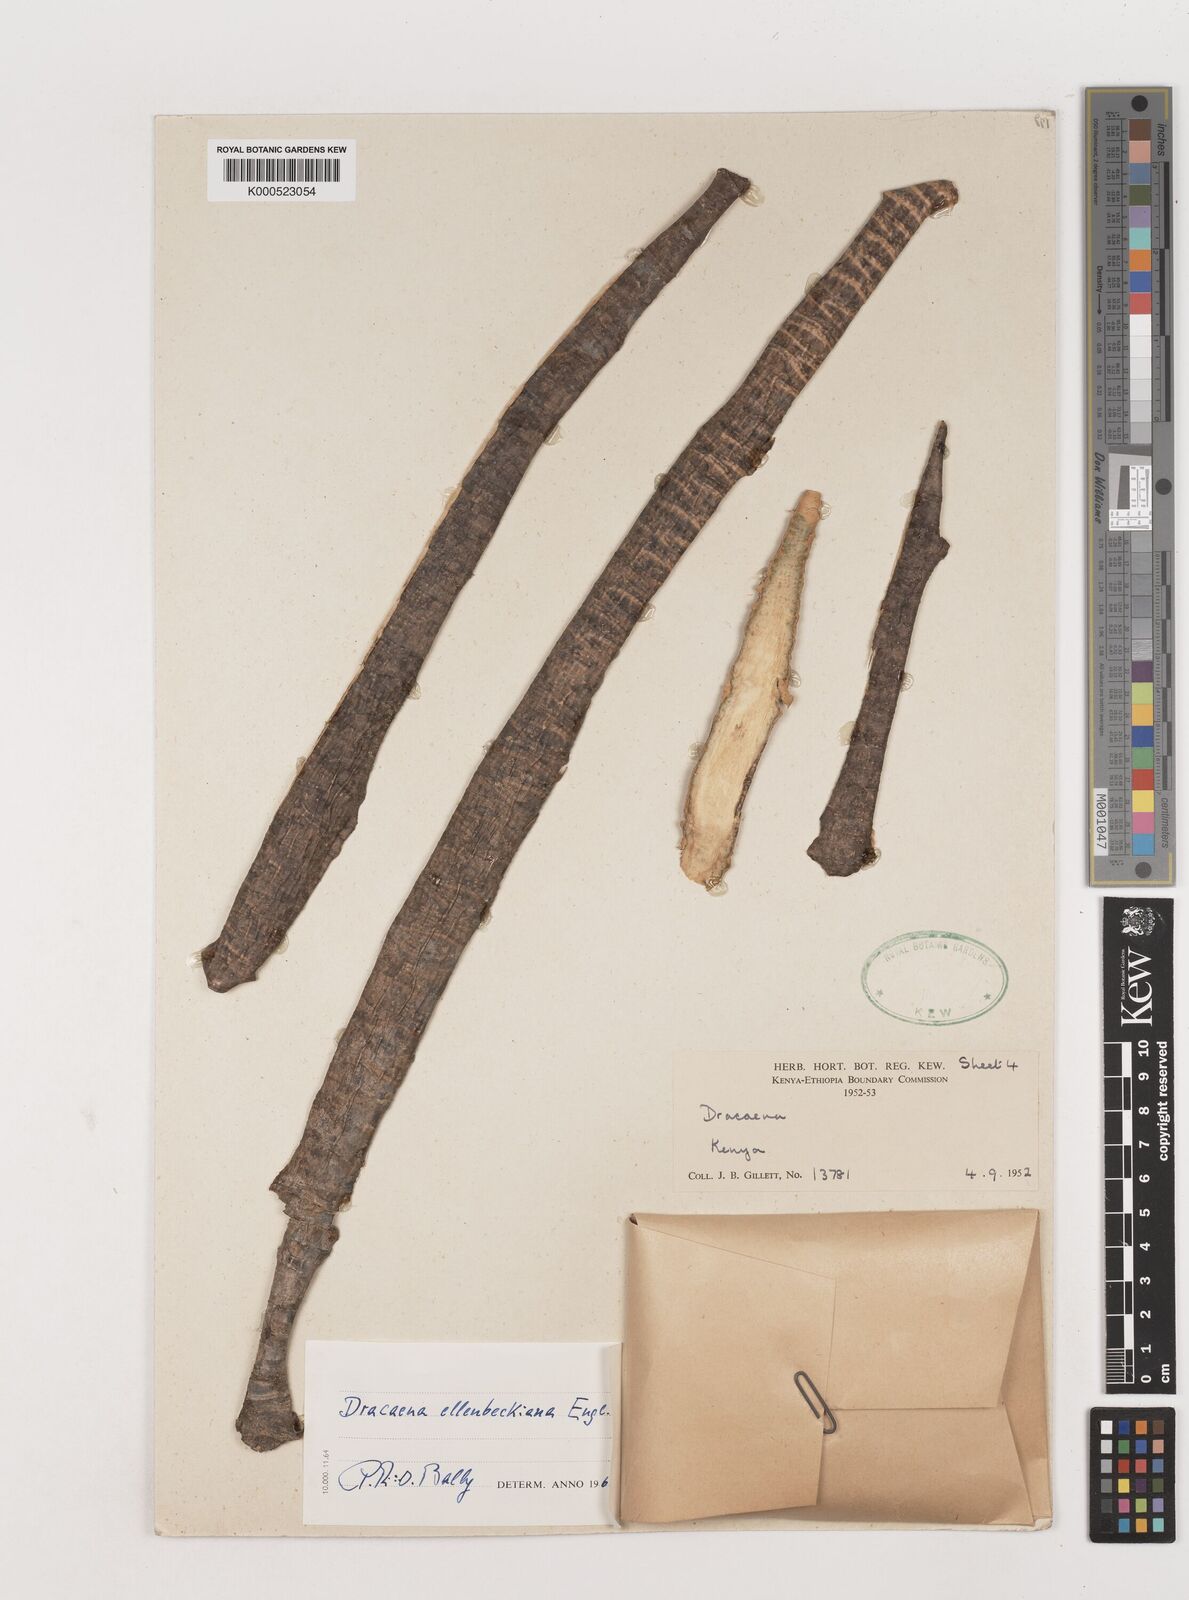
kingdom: Plantae
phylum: Tracheophyta
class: Liliopsida
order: Asparagales
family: Asparagaceae
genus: Dracaena
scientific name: Dracaena ellenbeckiana
